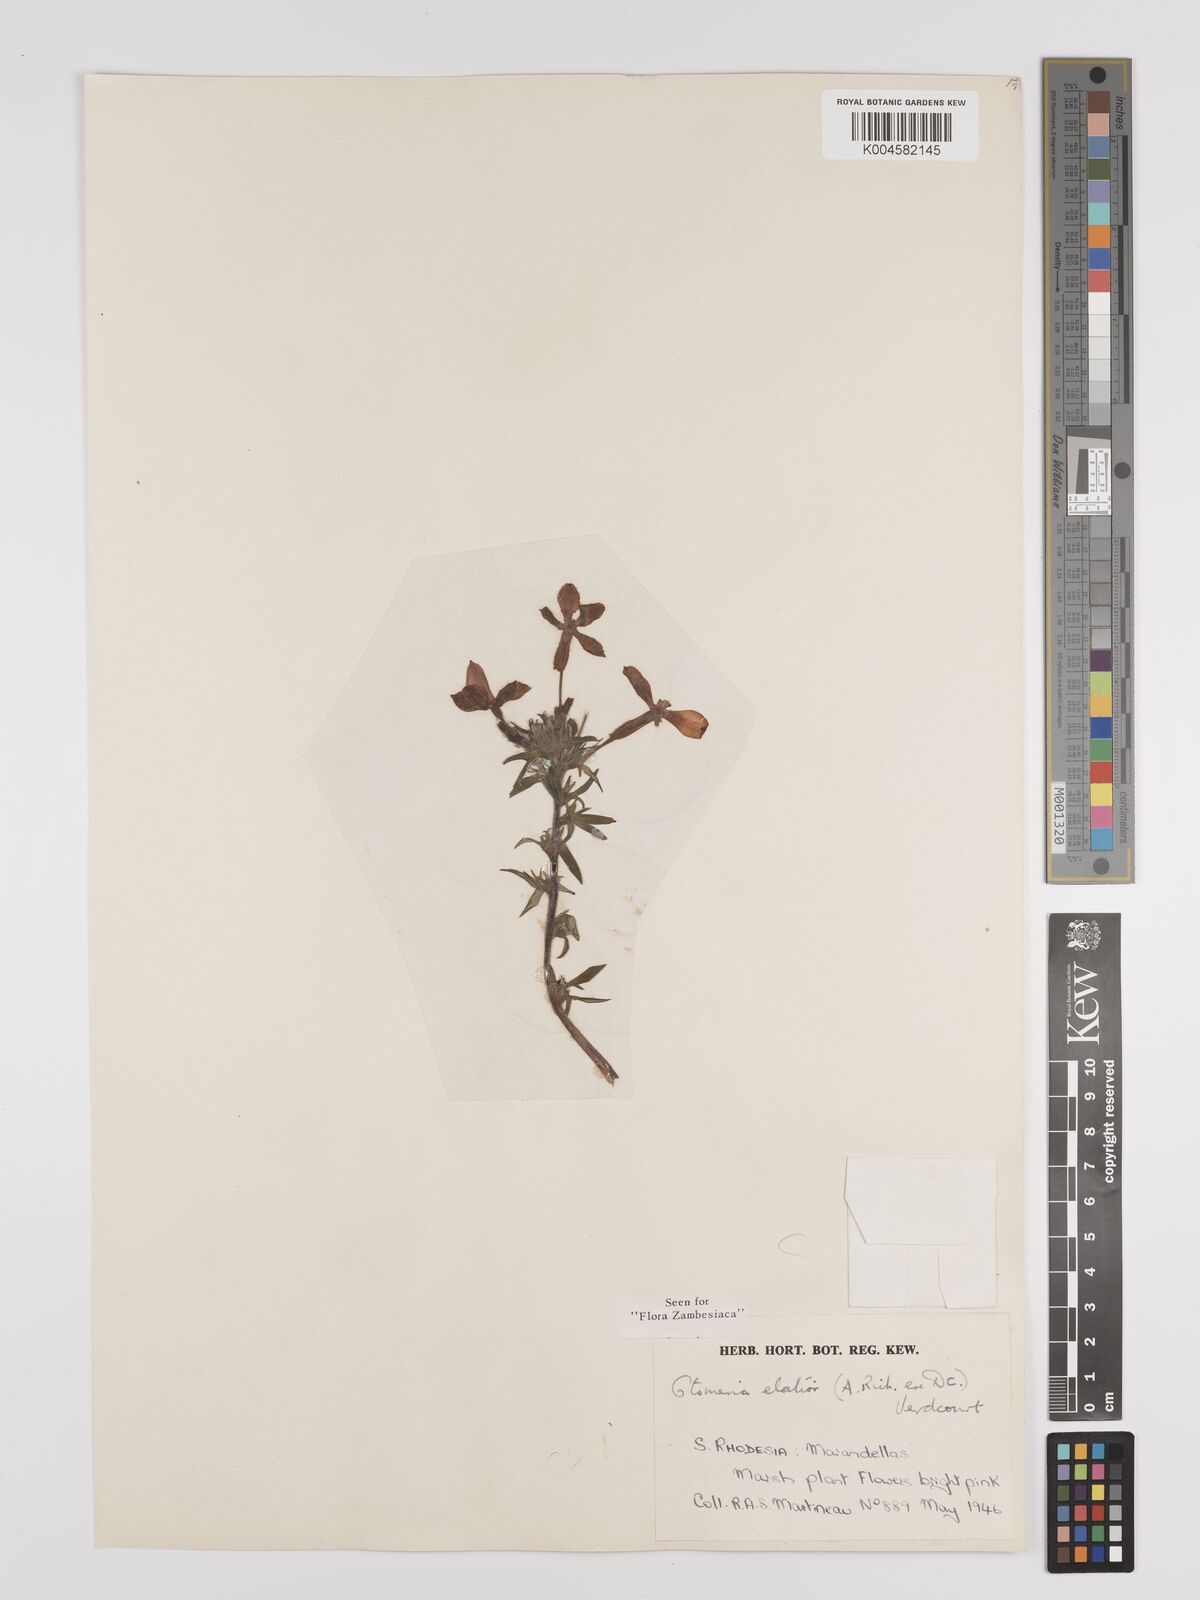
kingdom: Plantae
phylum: Tracheophyta
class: Magnoliopsida
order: Gentianales
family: Rubiaceae
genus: Otomeria
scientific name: Otomeria elatior
